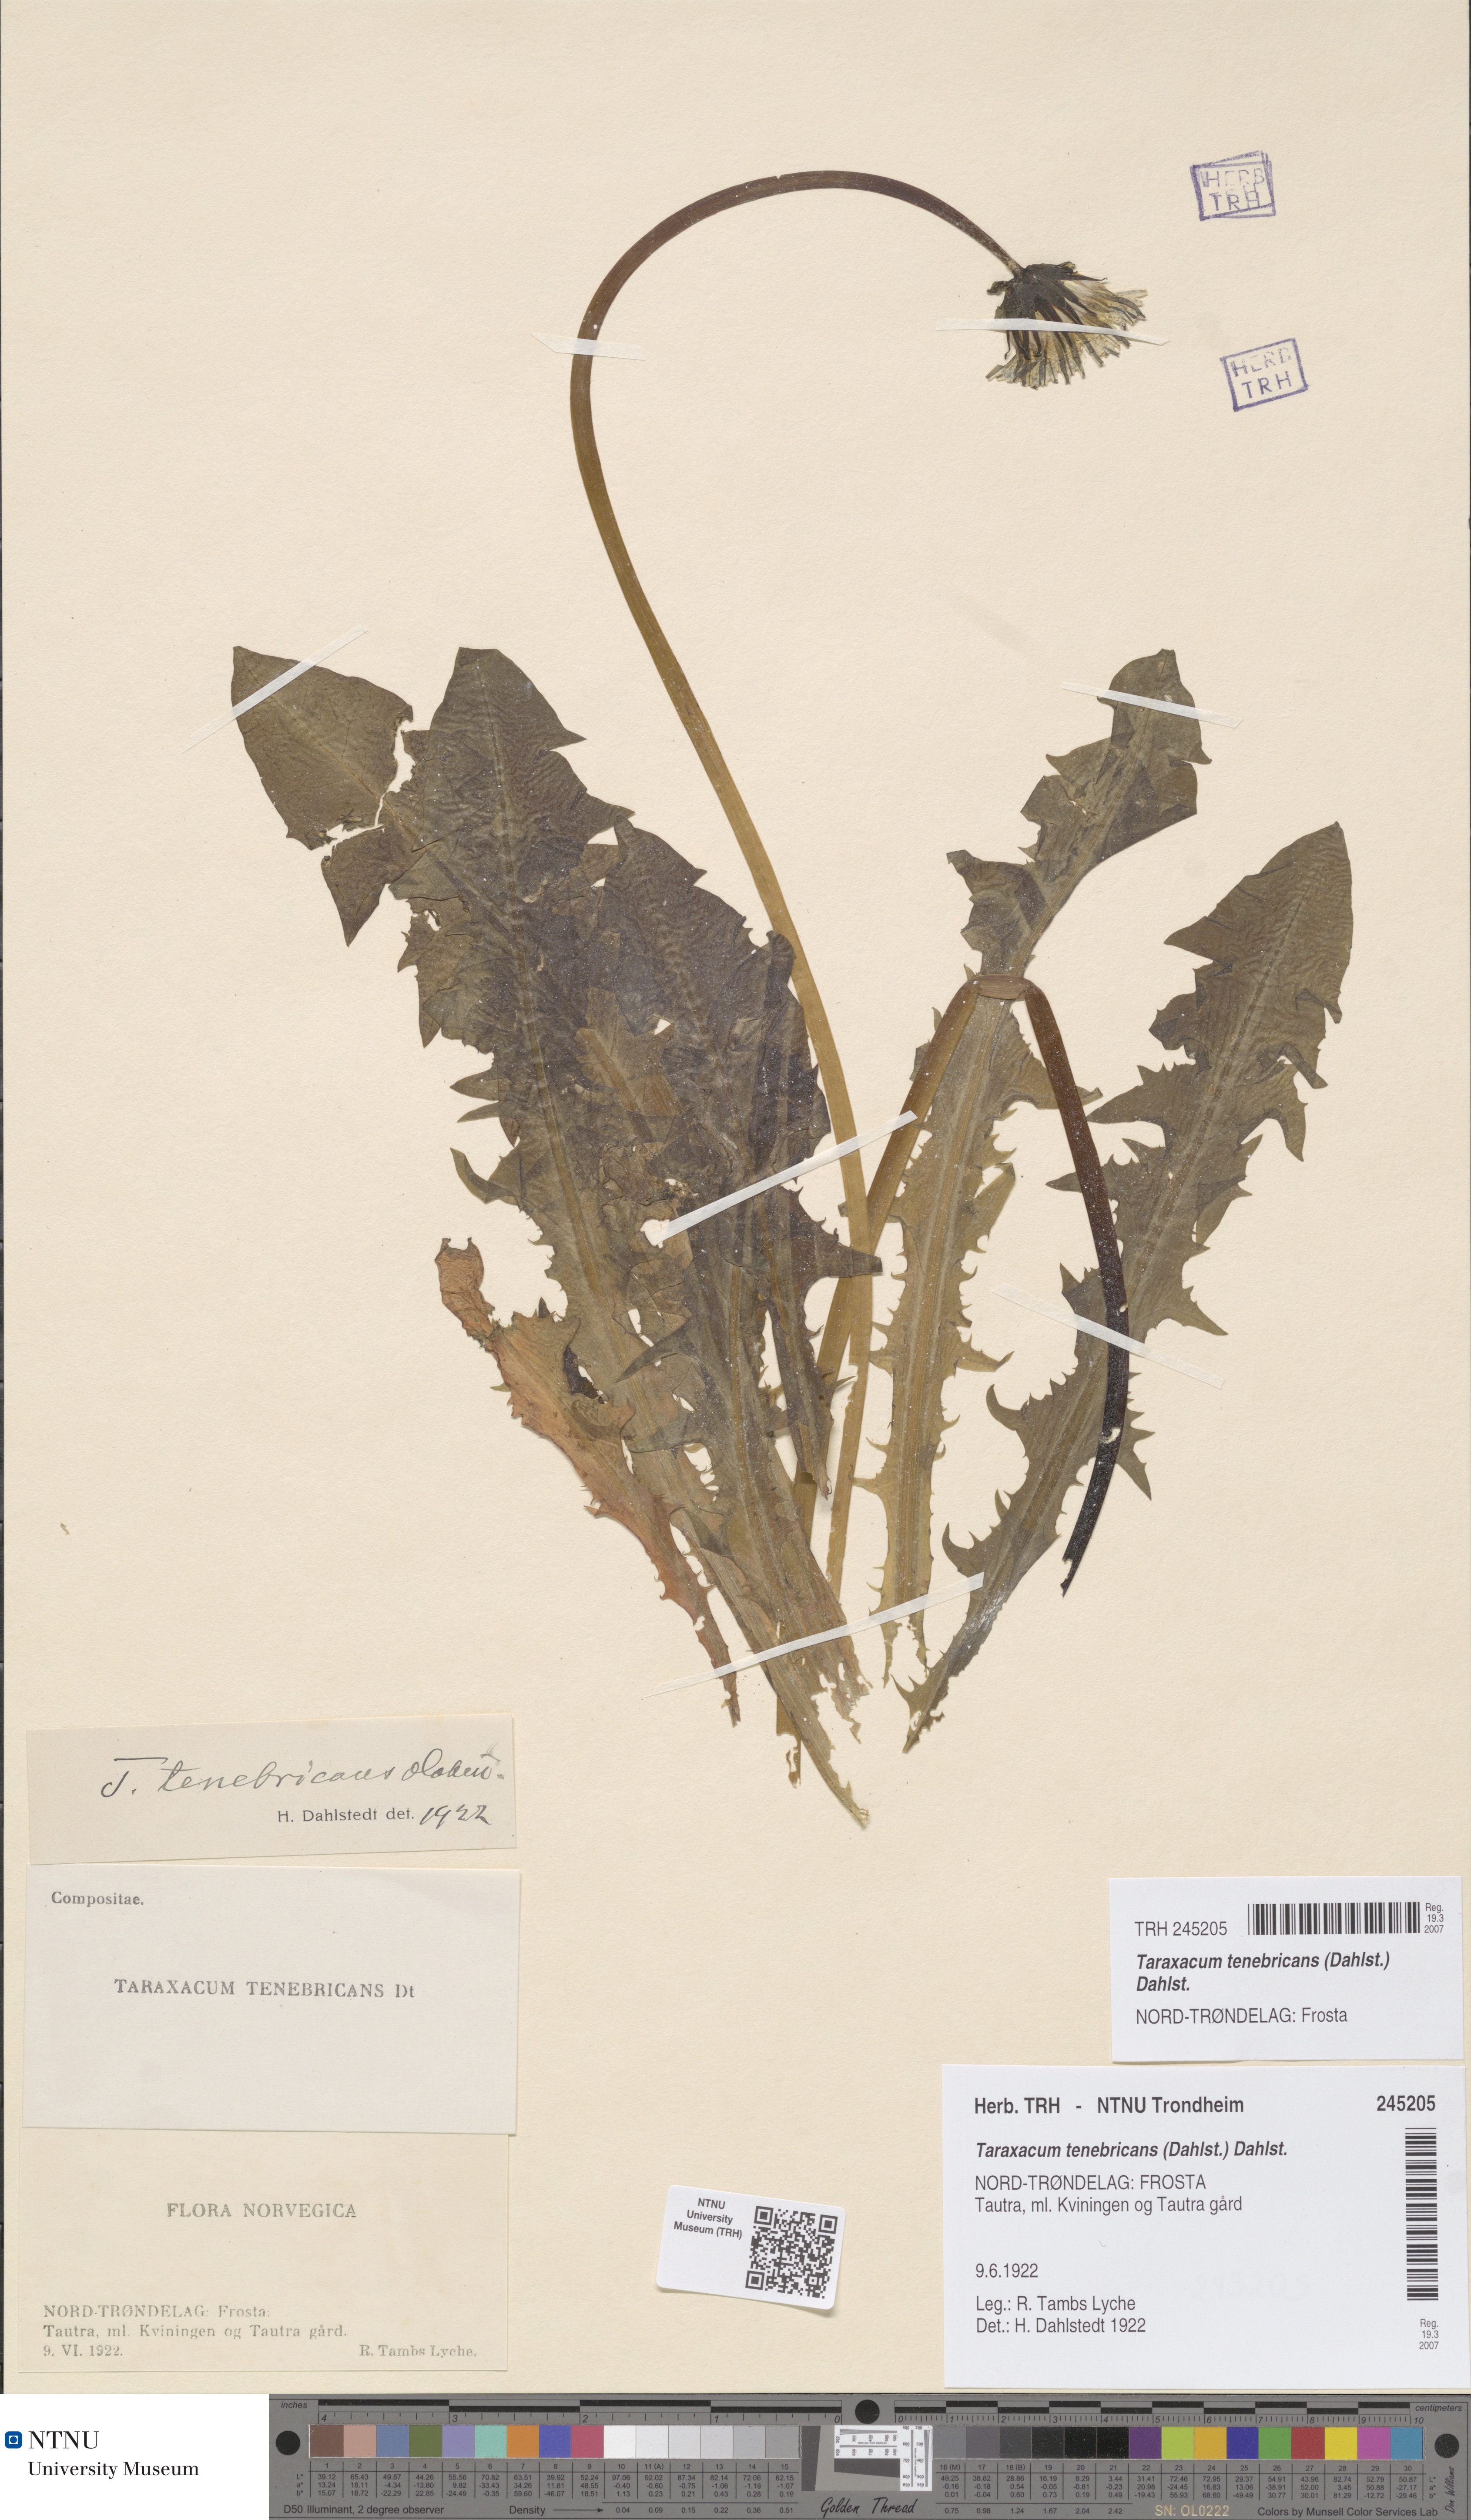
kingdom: Plantae
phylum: Tracheophyta
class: Magnoliopsida
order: Asterales
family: Asteraceae
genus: Taraxacum
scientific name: Taraxacum tenebricans
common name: Shiny-leaved dandelion
